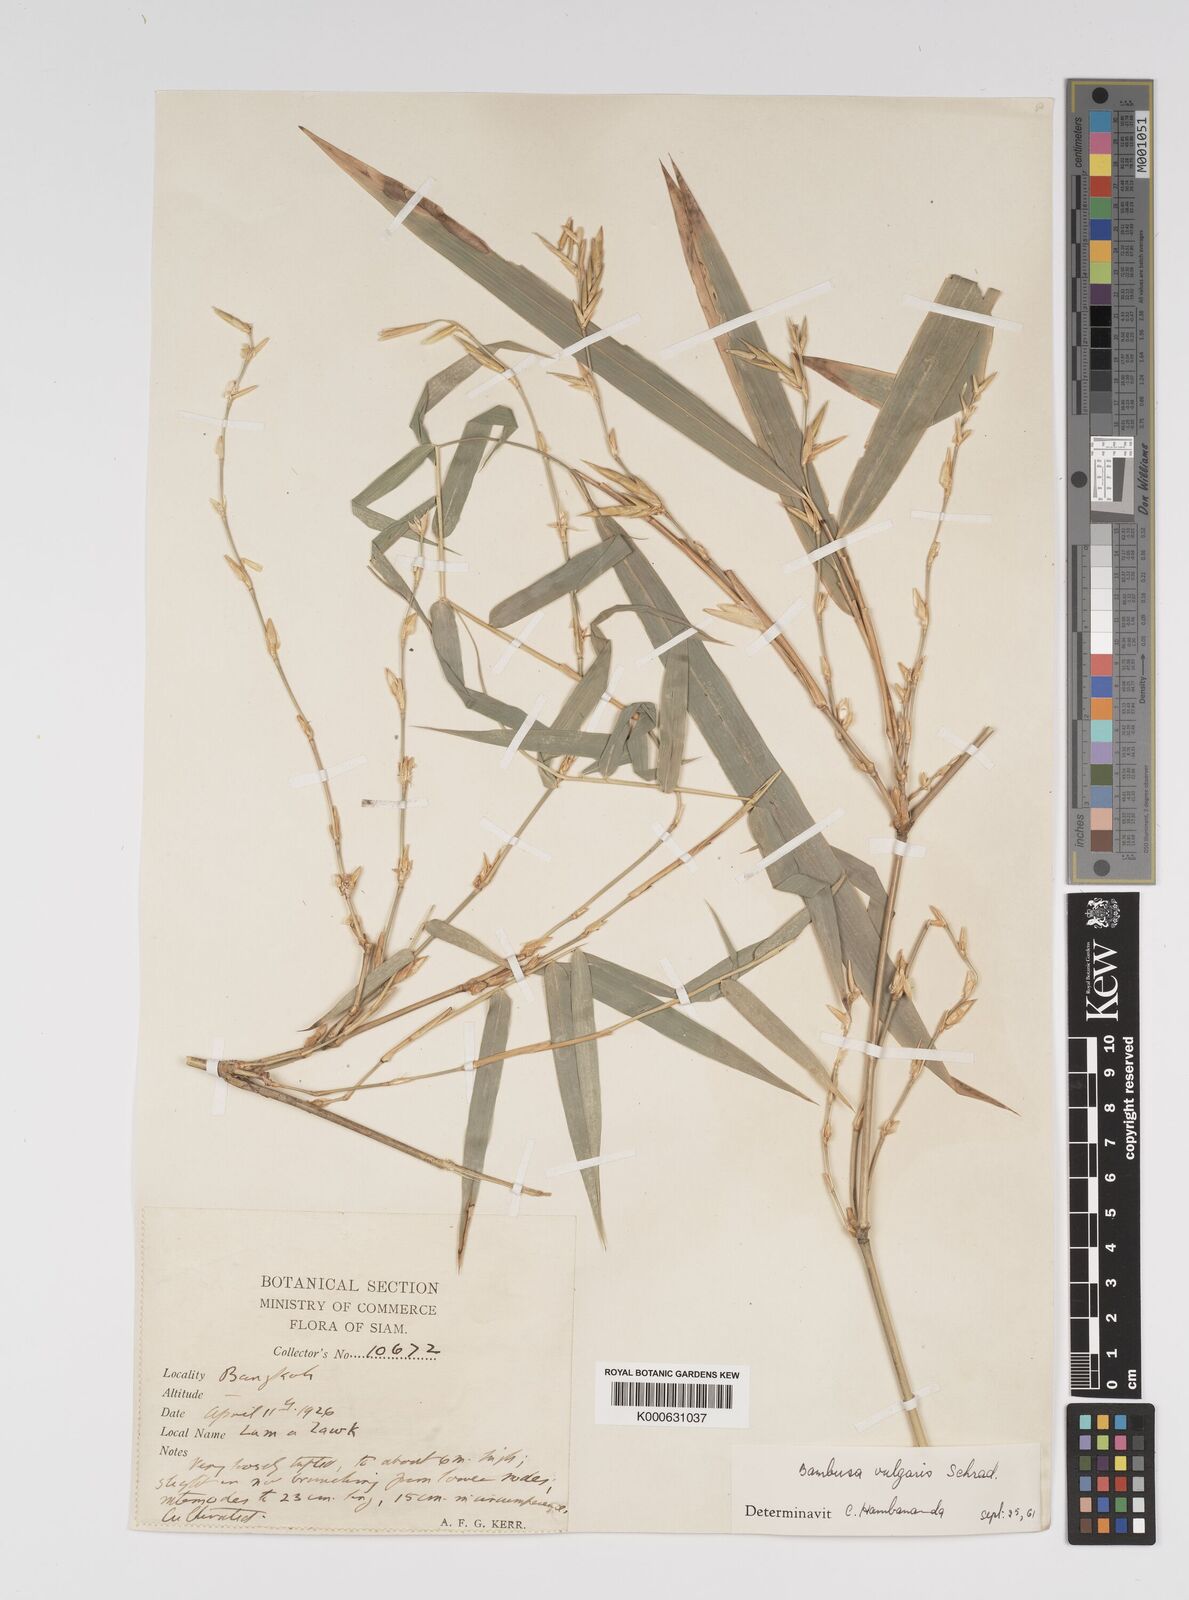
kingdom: Plantae
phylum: Tracheophyta
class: Liliopsida
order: Poales
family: Poaceae
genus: Bambusa
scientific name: Bambusa
